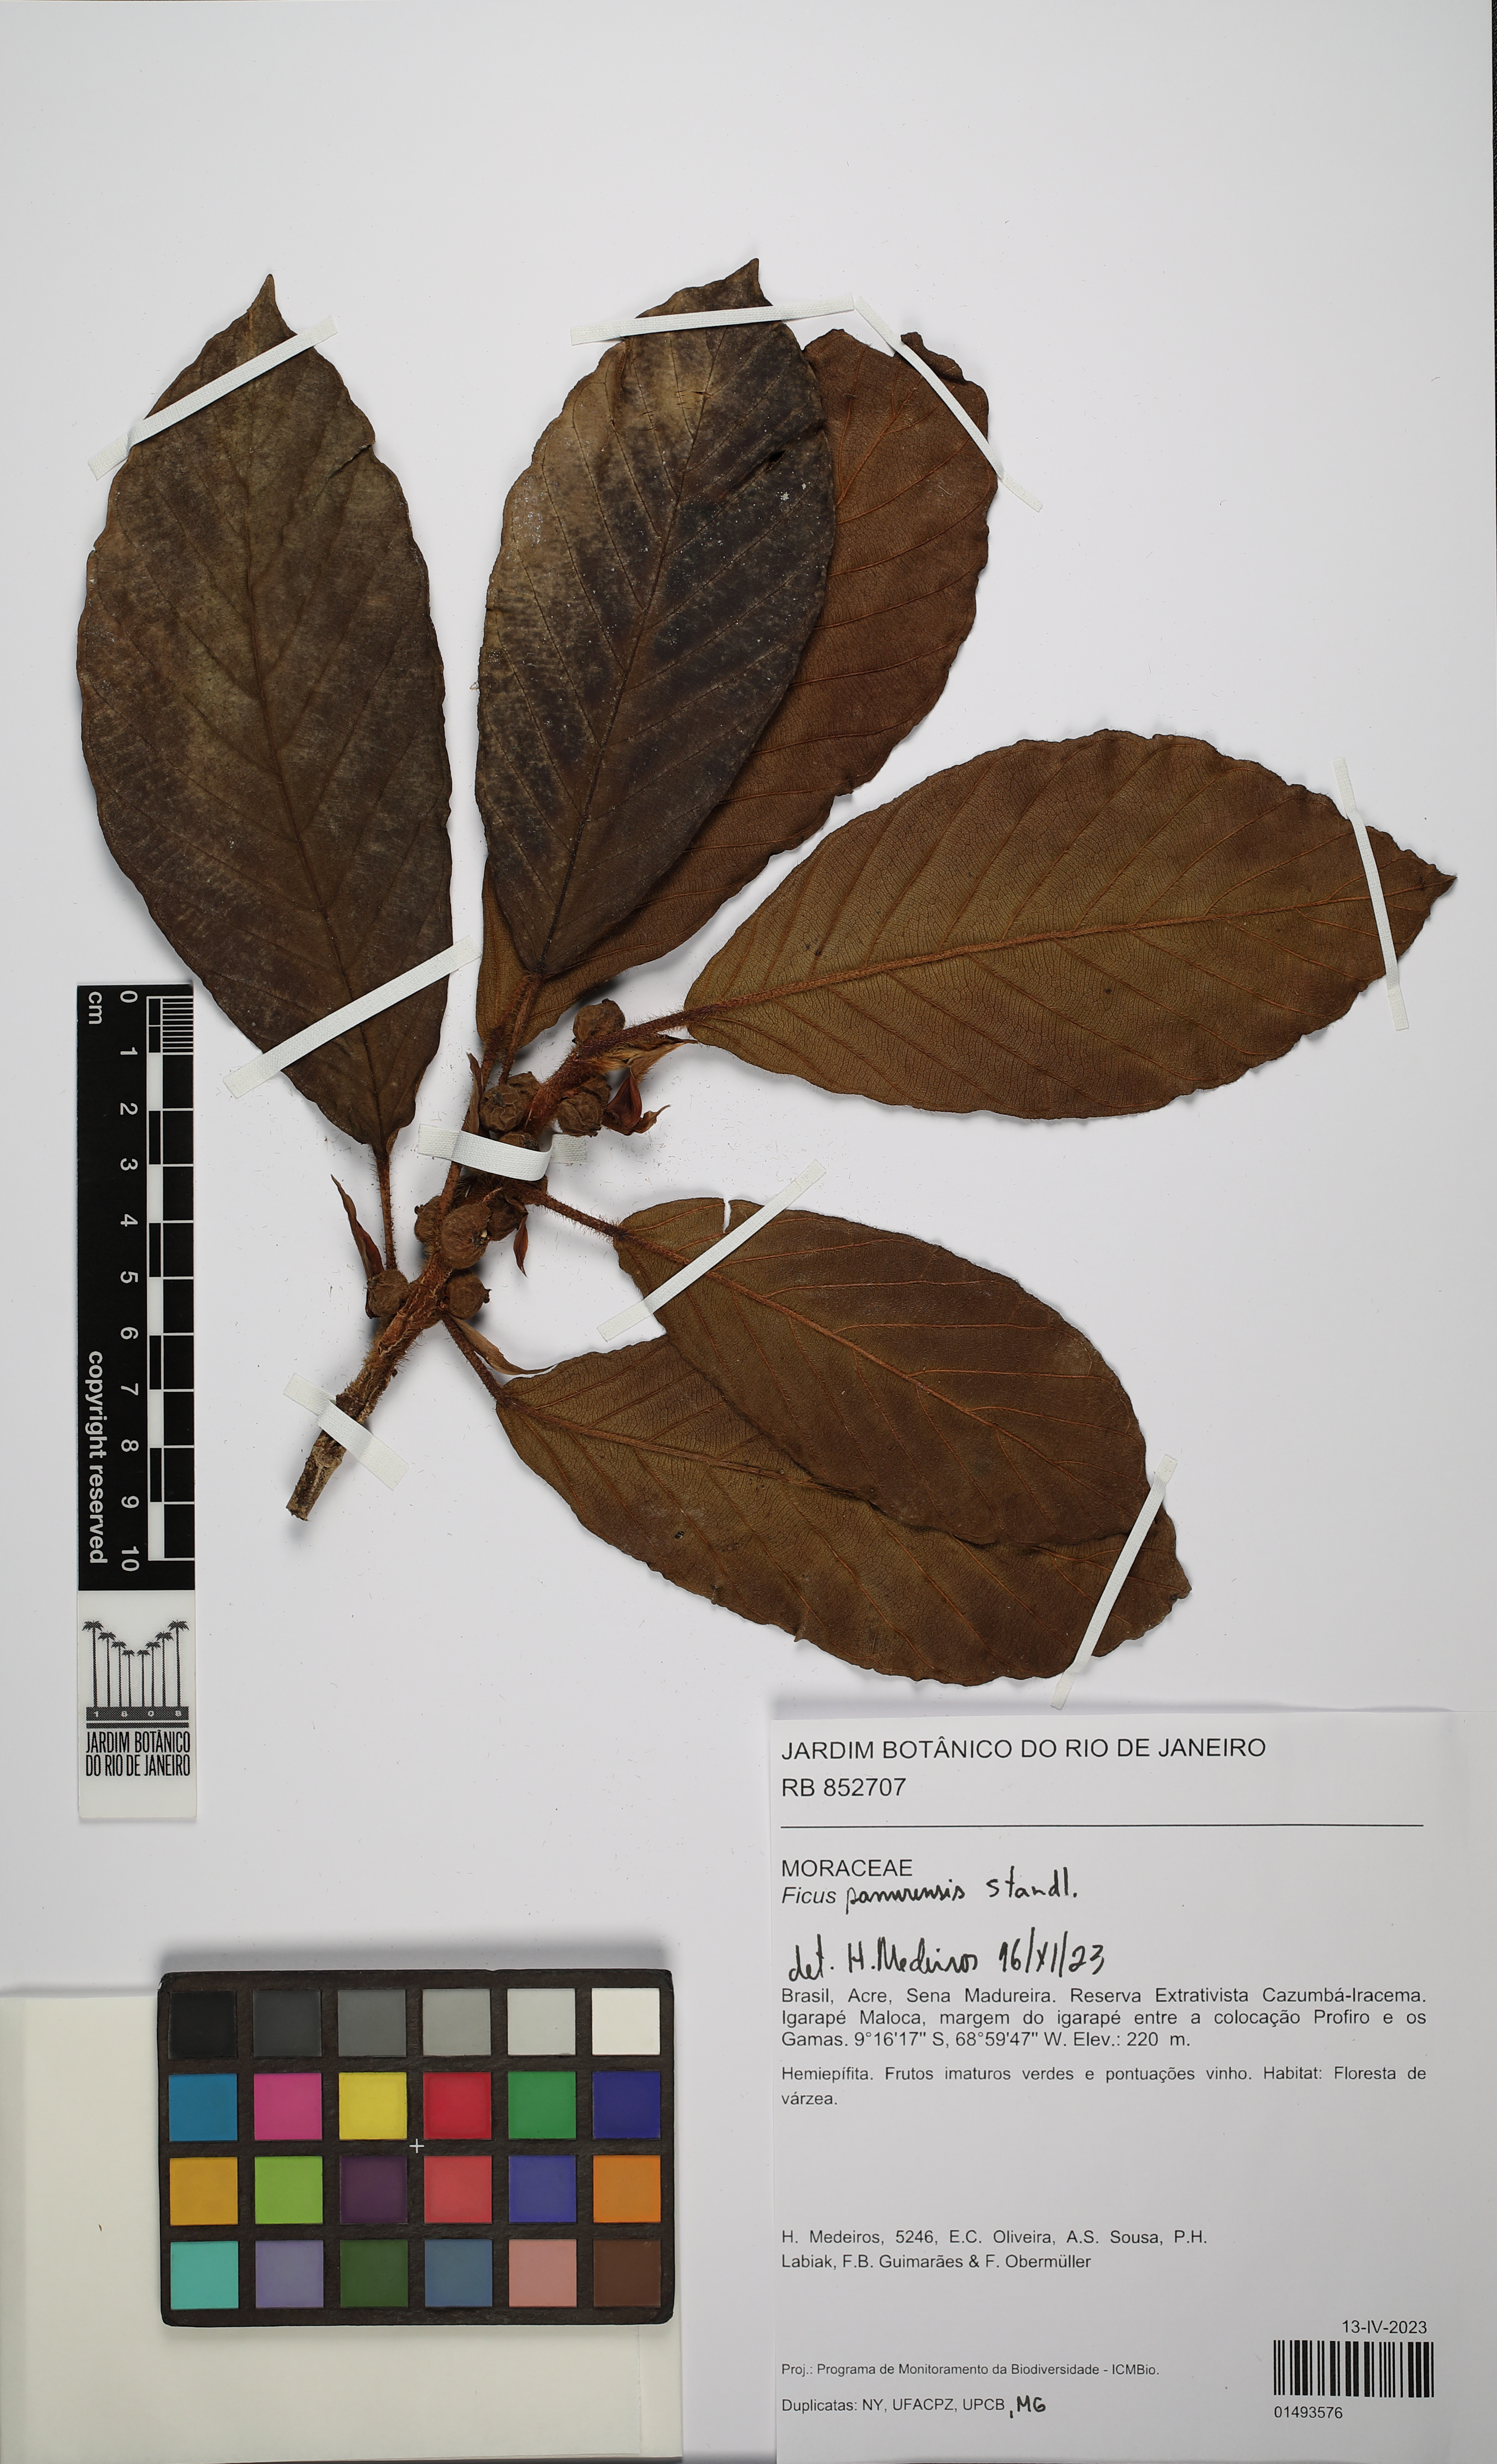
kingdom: Plantae
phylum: Tracheophyta
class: Magnoliopsida
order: Rosales
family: Moraceae
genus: Ficus
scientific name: Ficus panurensis
